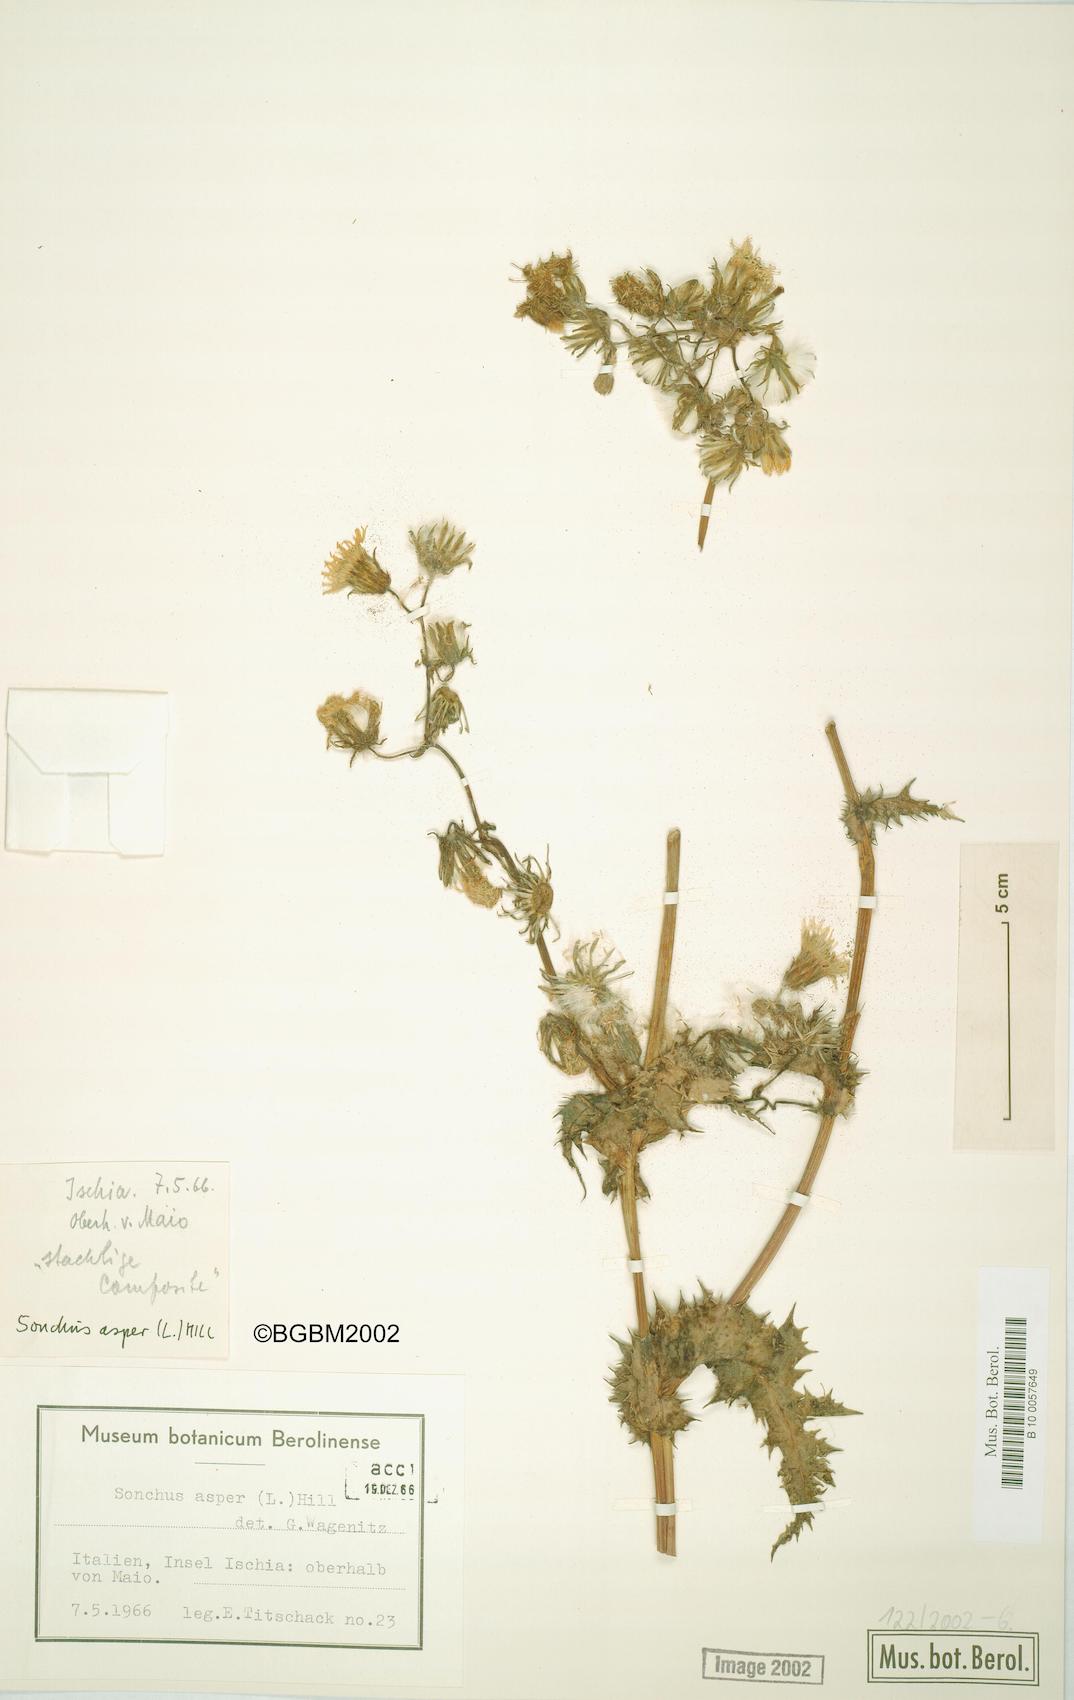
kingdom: Plantae
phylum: Tracheophyta
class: Magnoliopsida
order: Asterales
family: Asteraceae
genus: Sonchus
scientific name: Sonchus asper
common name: Prickly sow-thistle
